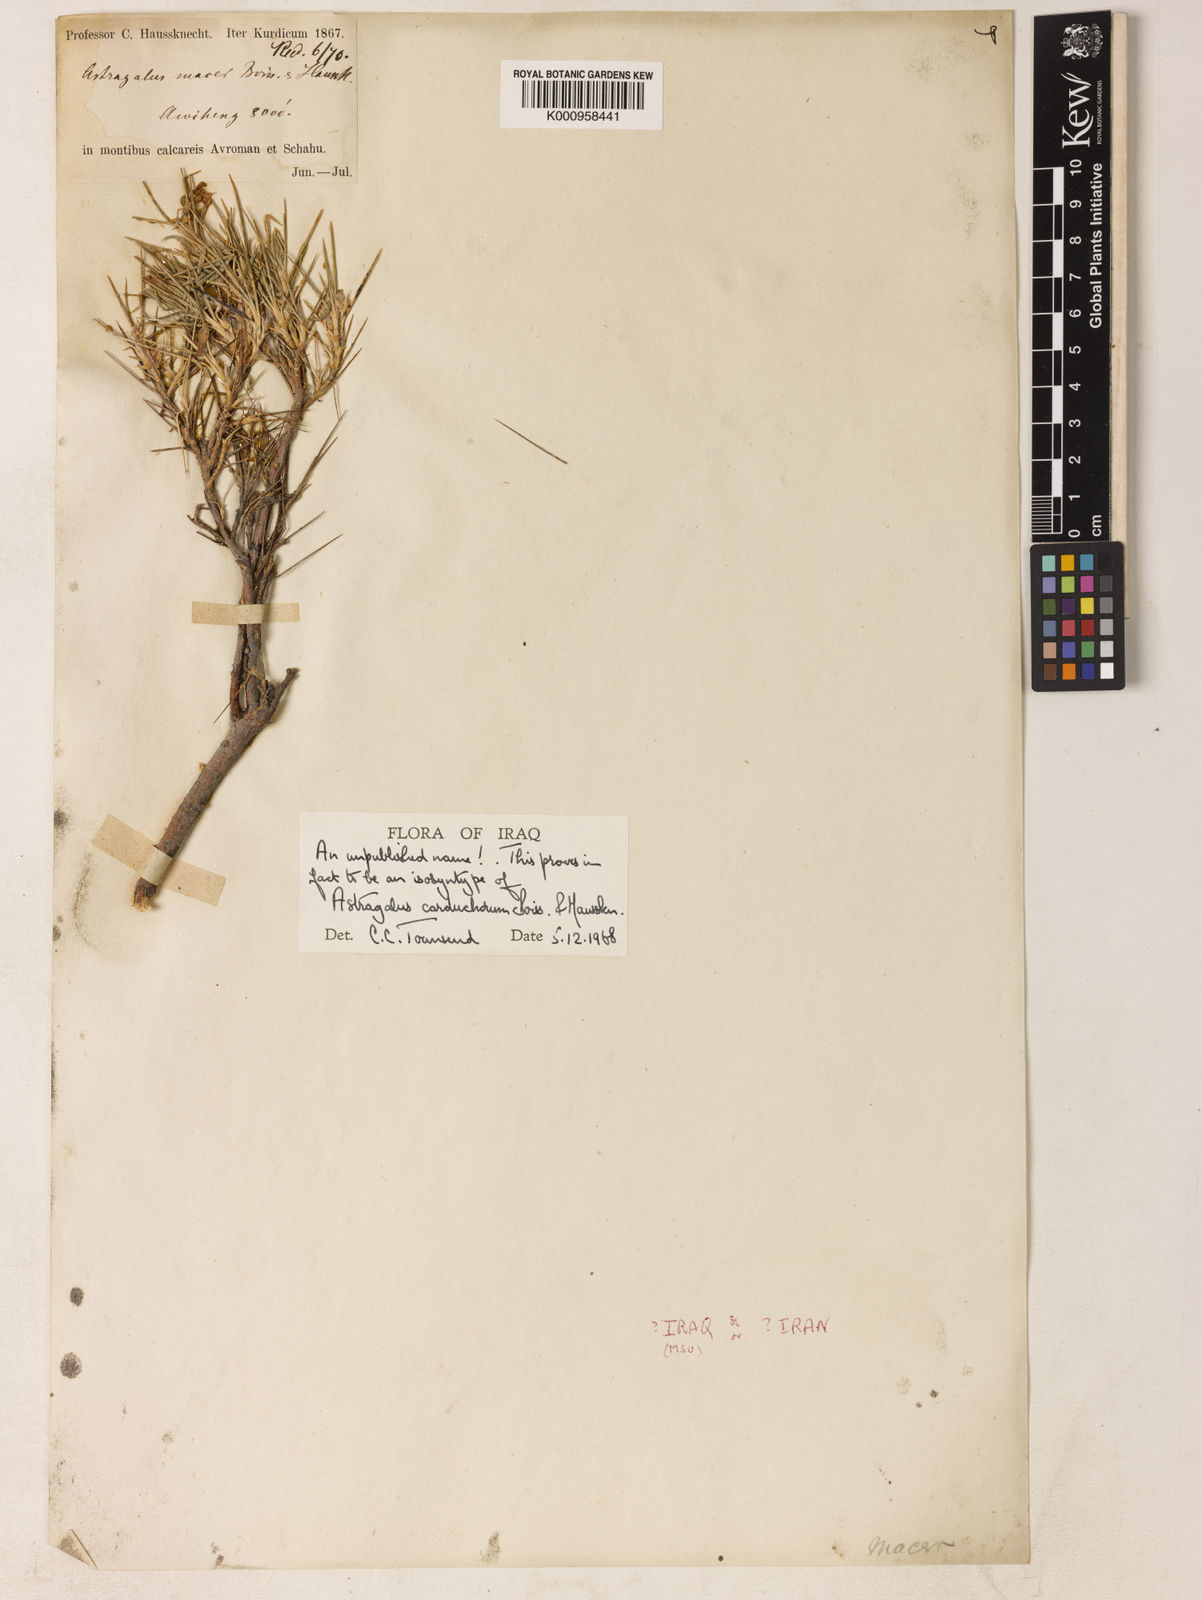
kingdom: Plantae
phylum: Tracheophyta
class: Magnoliopsida
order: Fabales
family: Fabaceae
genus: Astragalus
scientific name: Astragalus carduchorum
